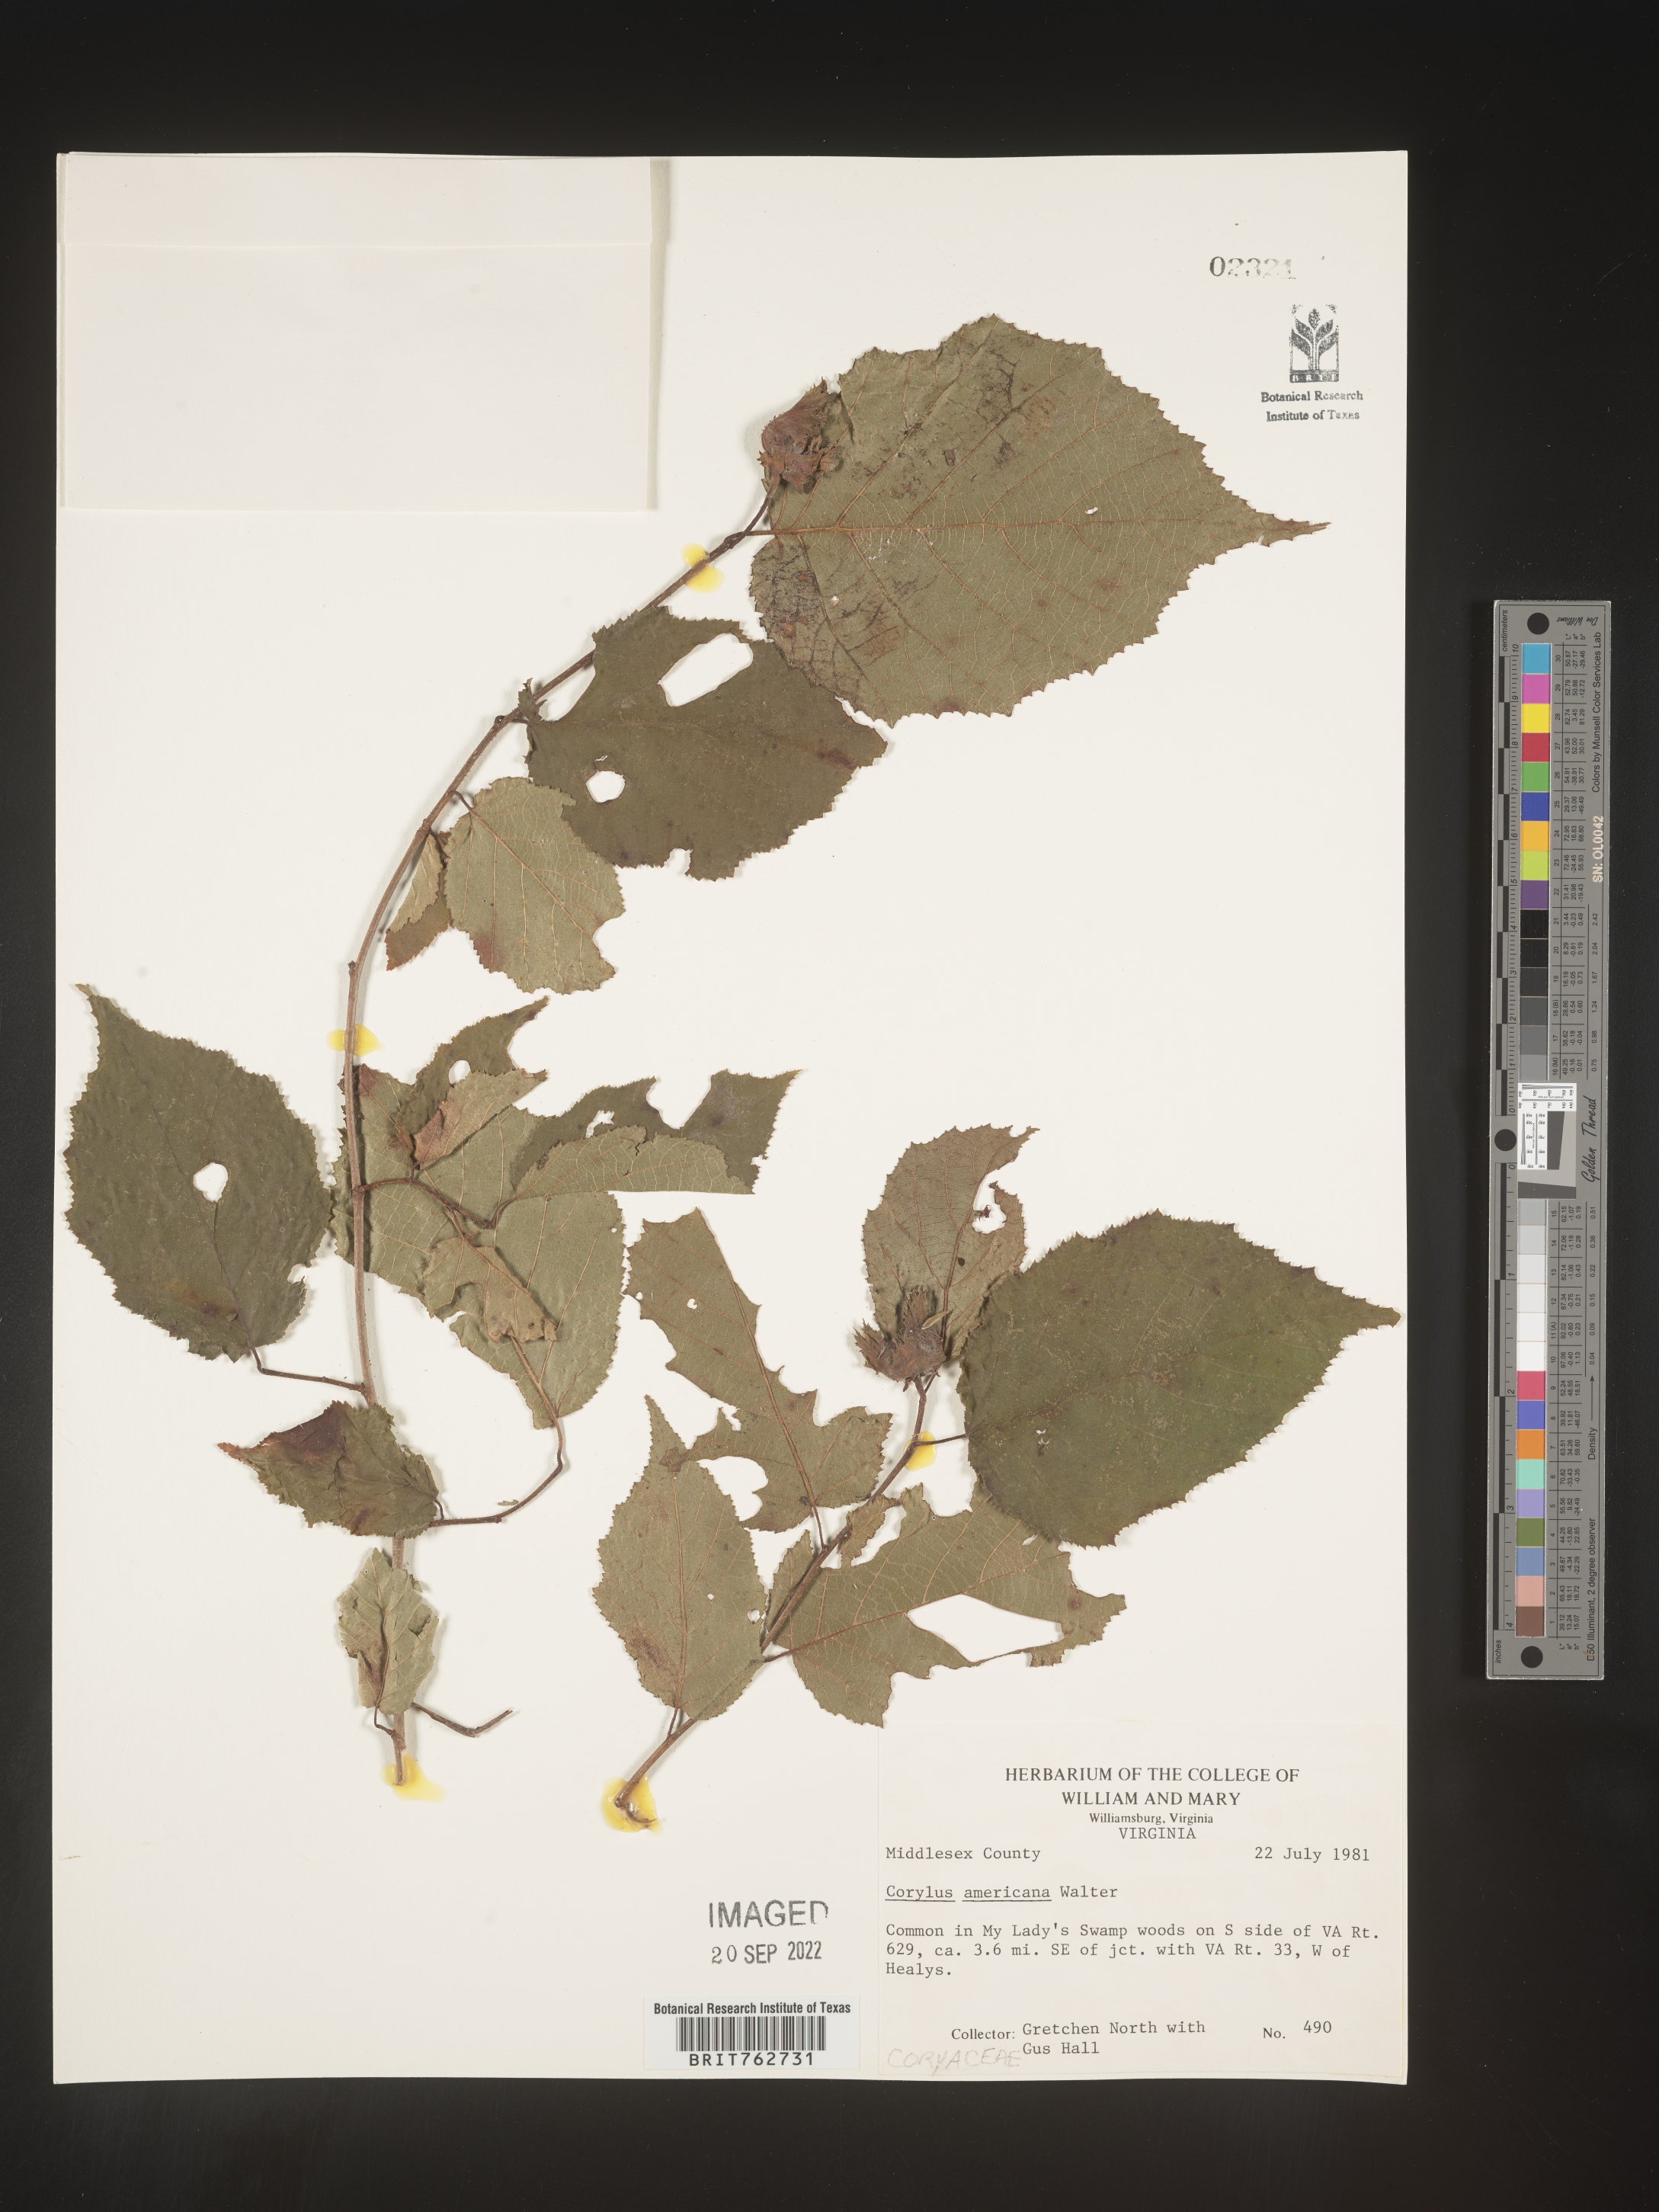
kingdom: Plantae
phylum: Tracheophyta
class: Magnoliopsida
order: Fagales
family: Betulaceae
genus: Corylus
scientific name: Corylus americana
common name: American hazel
